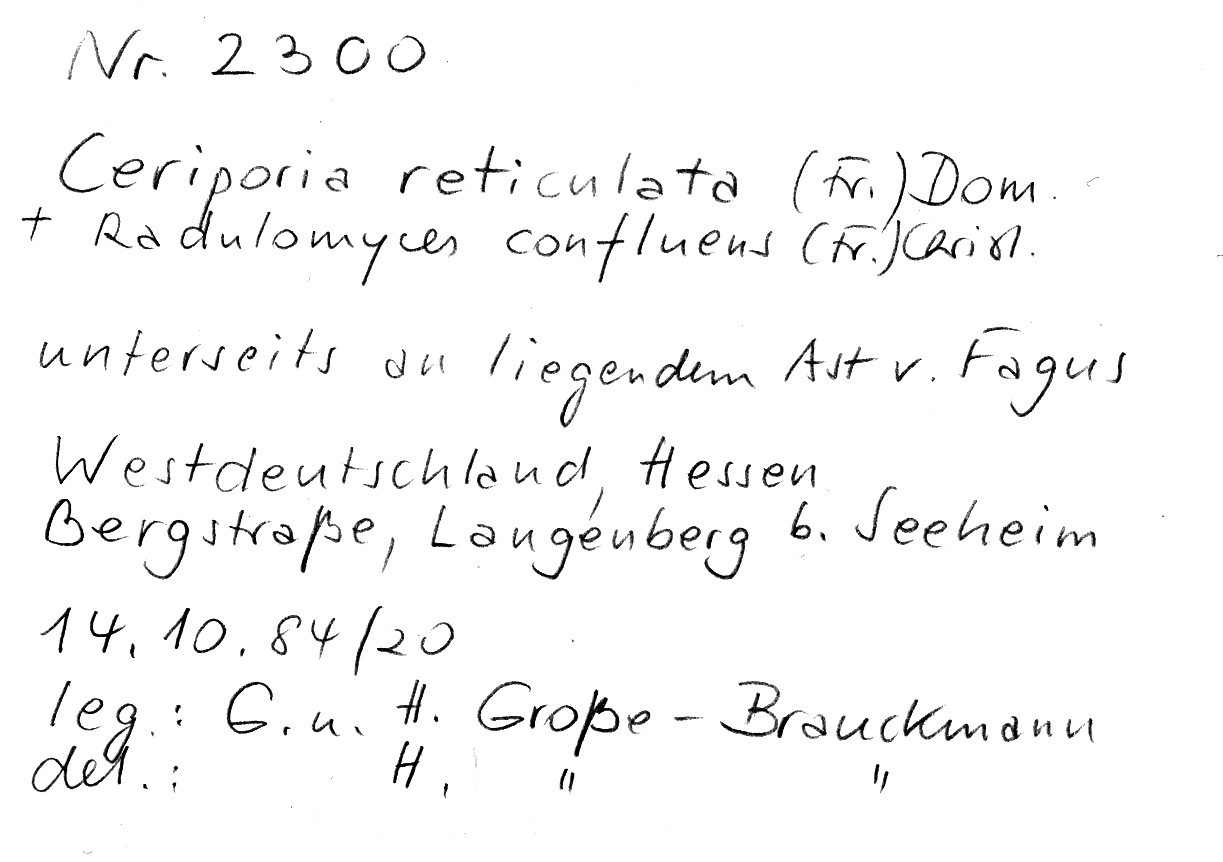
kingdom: Fungi
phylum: Basidiomycota
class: Agaricomycetes
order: Agaricales
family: Radulomycetaceae
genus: Radulomyces
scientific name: Radulomyces confluens
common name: Confluent radulomyces
